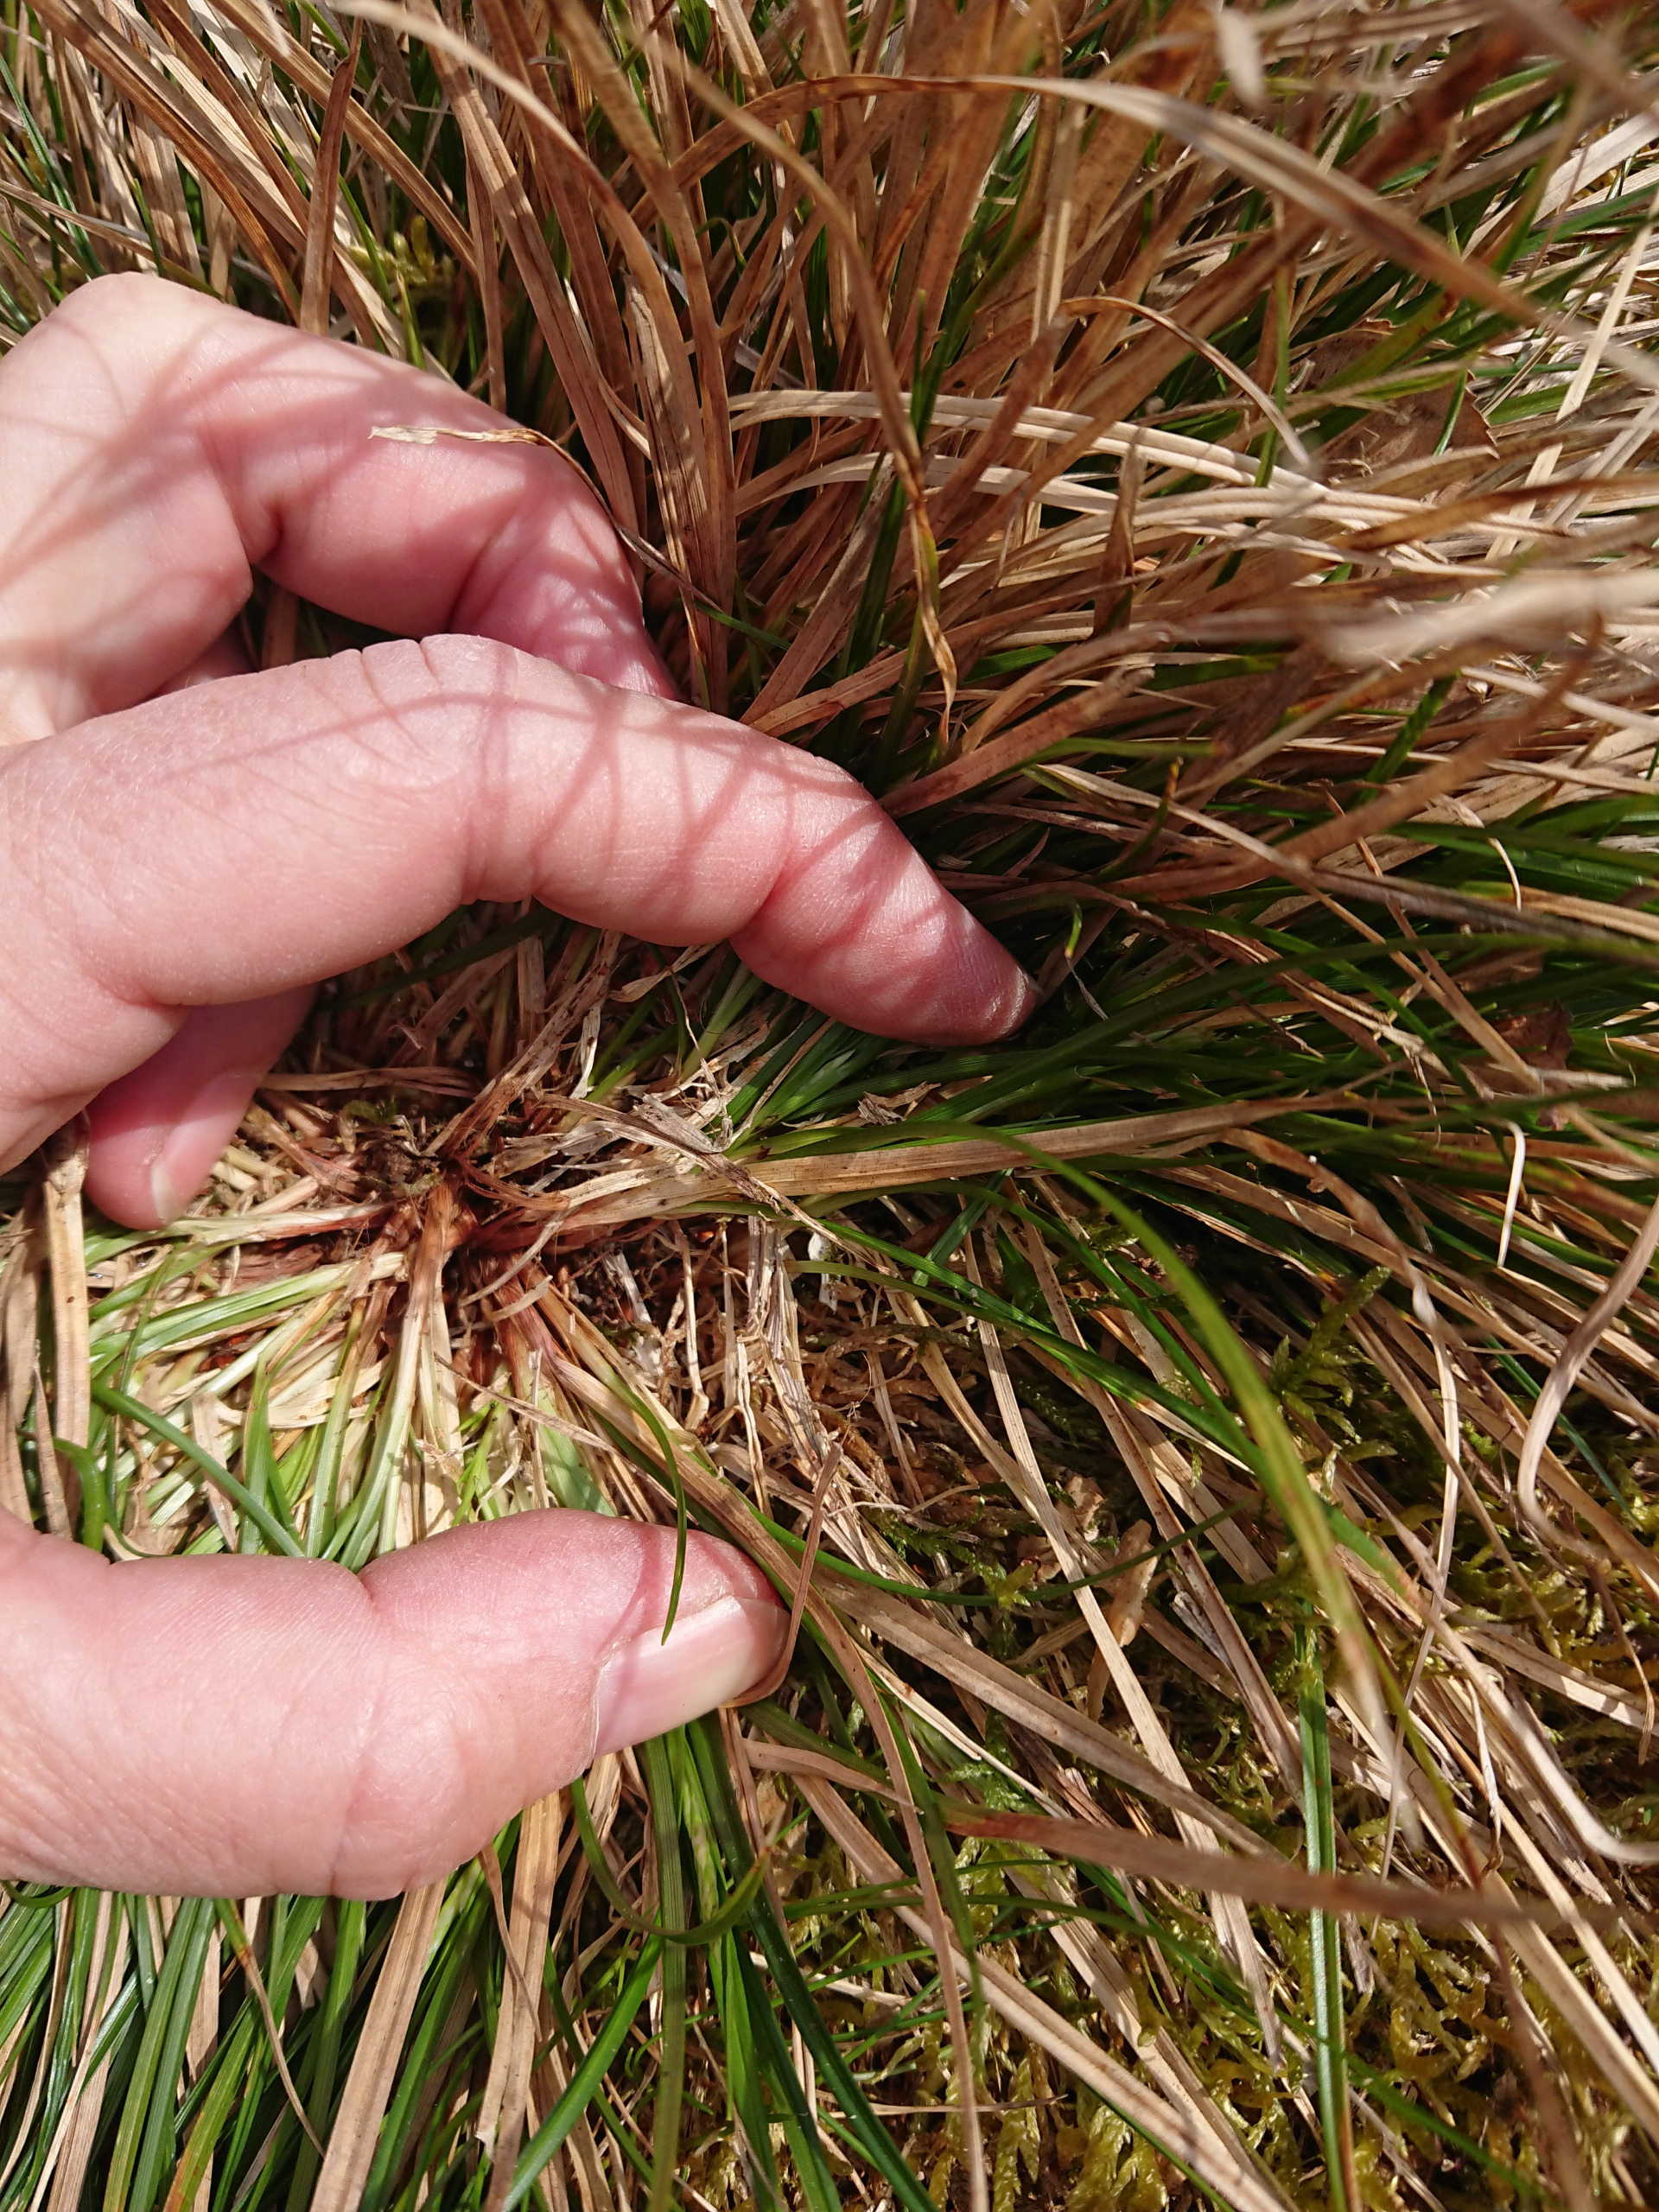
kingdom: Plantae
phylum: Tracheophyta
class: Liliopsida
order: Poales
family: Cyperaceae
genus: Carex
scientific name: Carex pilulifera
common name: Pille-star
